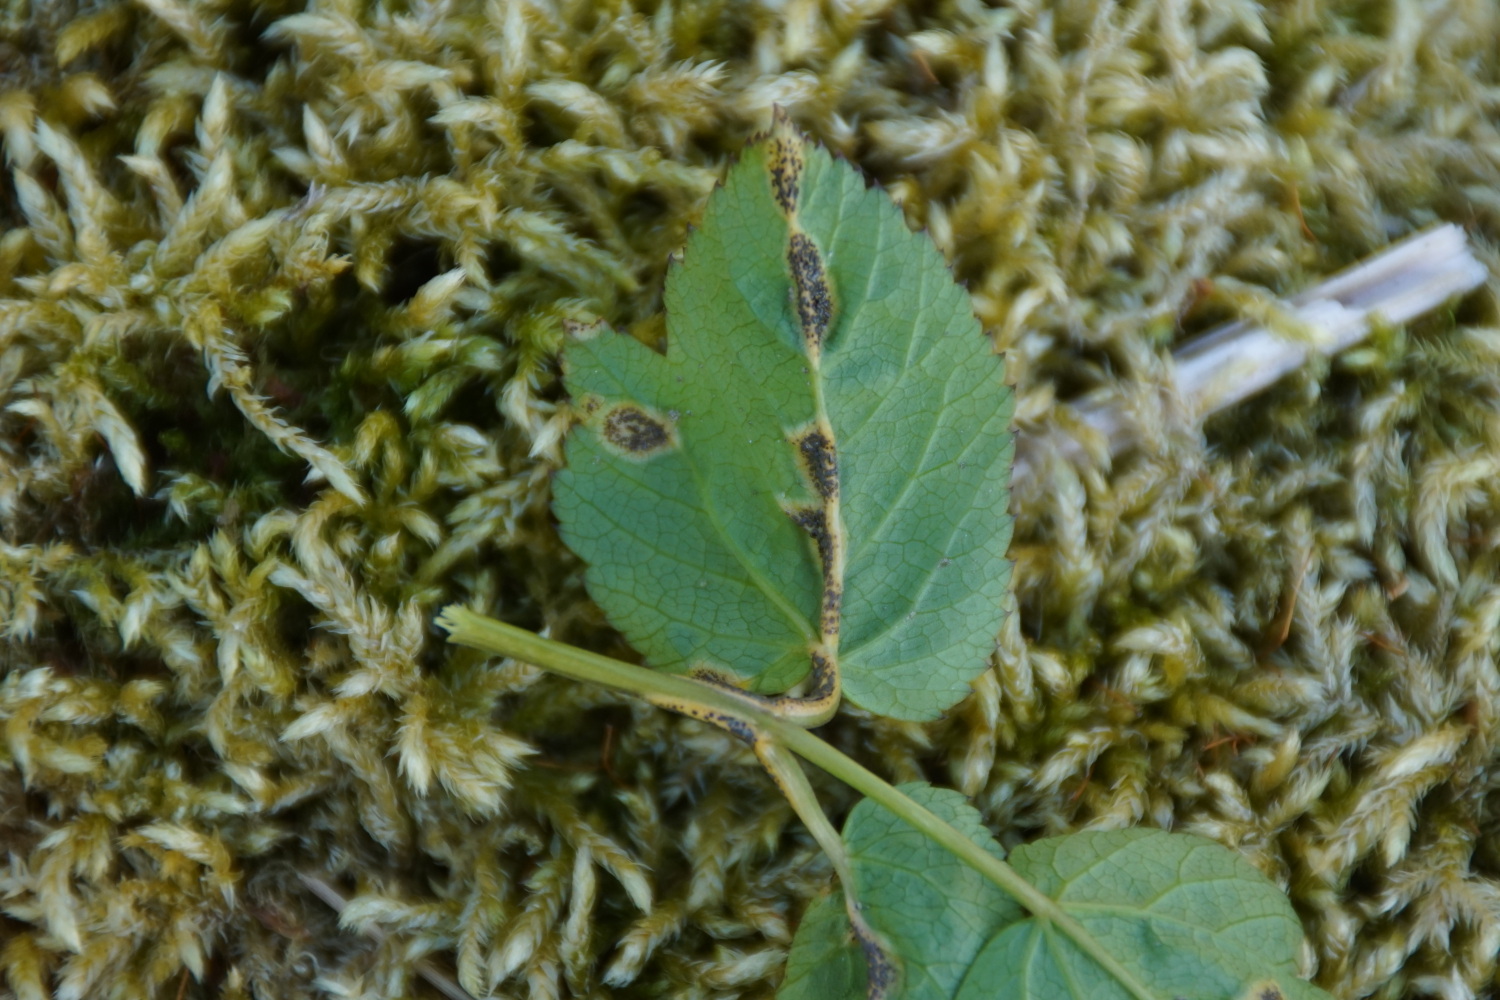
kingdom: Fungi
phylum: Basidiomycota
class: Pucciniomycetes
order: Pucciniales
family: Pucciniaceae
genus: Puccinia
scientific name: Puccinia
